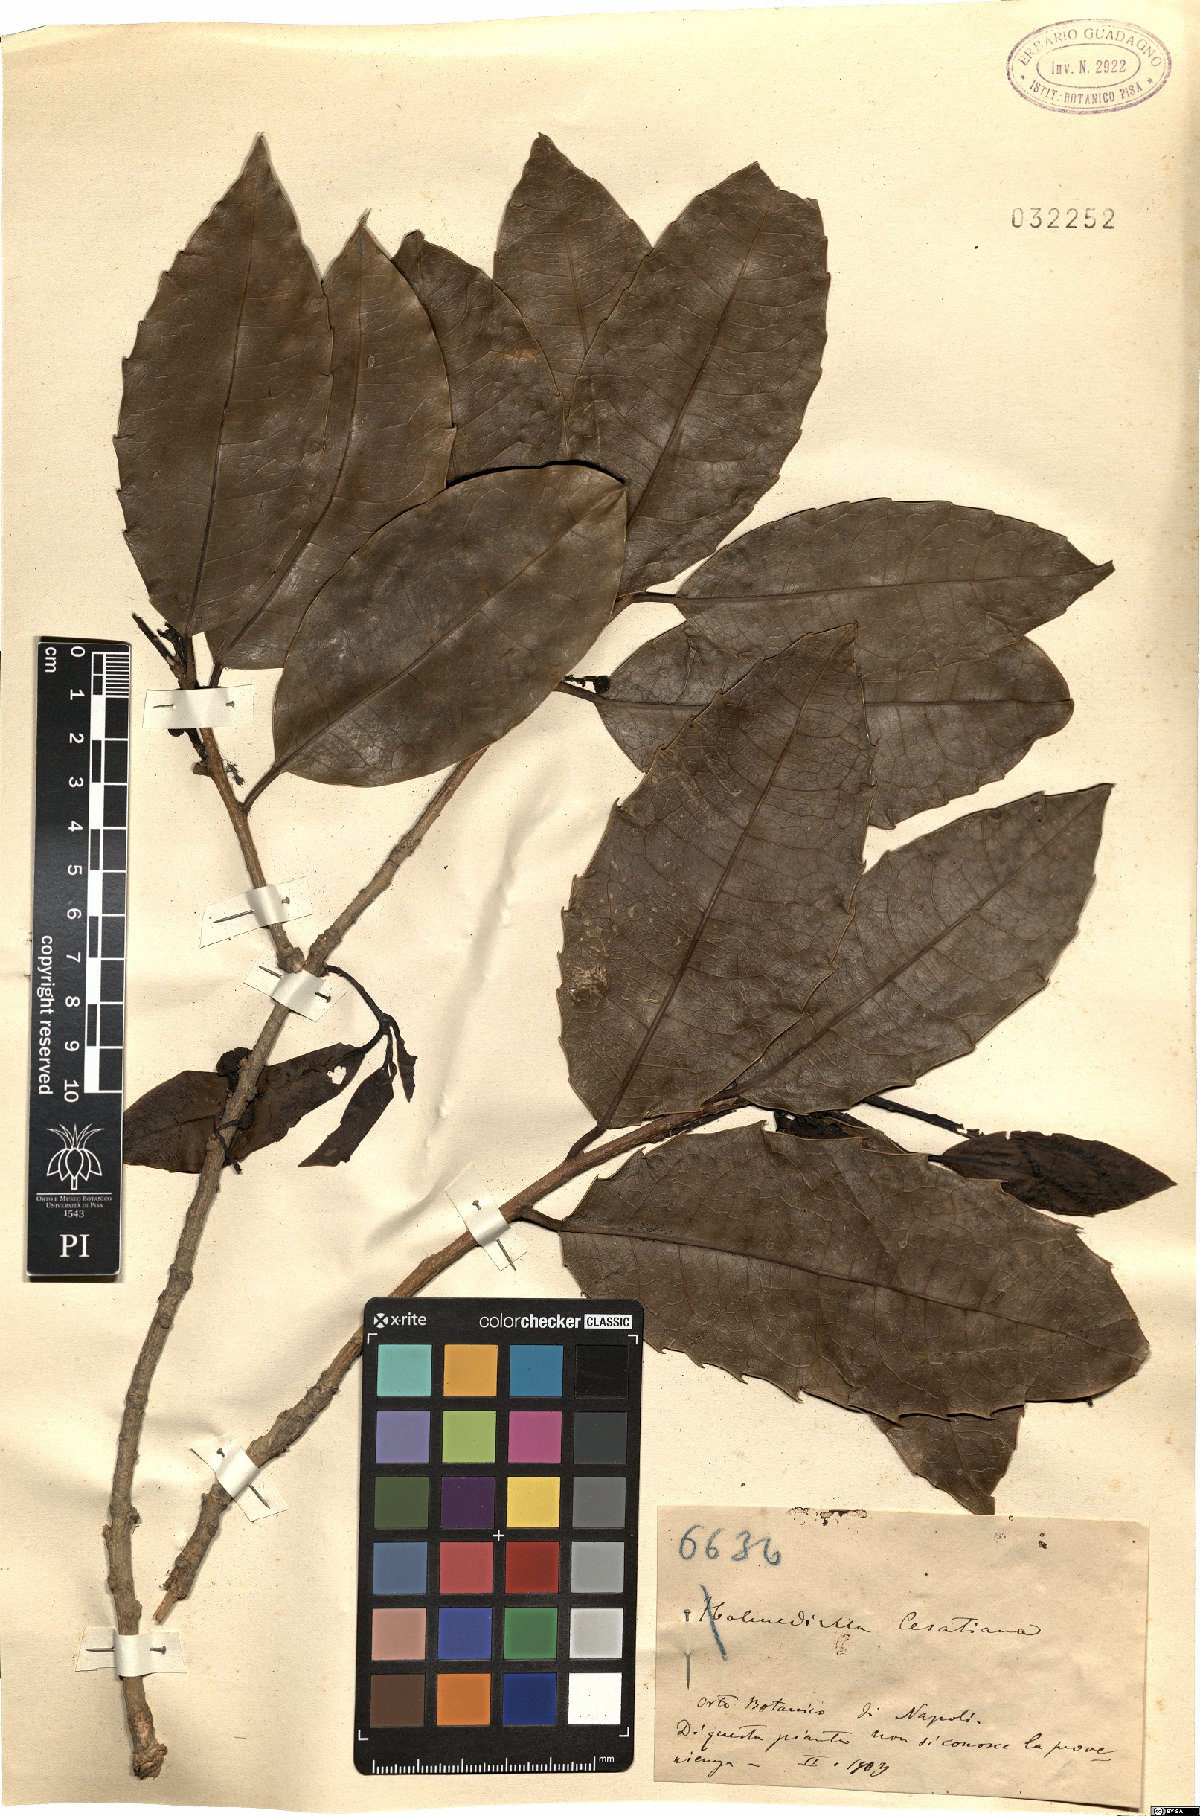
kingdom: Plantae
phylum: Tracheophyta
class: Magnoliopsida
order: Malpighiales
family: Salicaceae
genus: Olmediella
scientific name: Olmediella betschleriana
